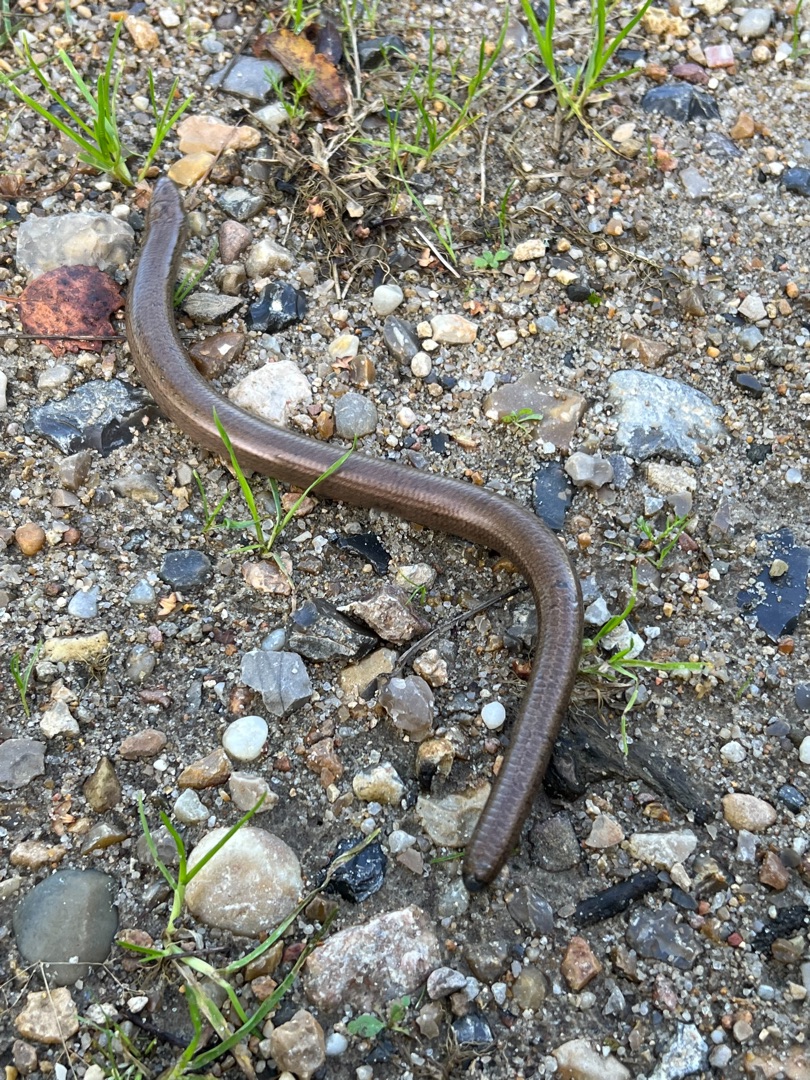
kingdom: Animalia
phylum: Chordata
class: Squamata
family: Anguidae
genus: Anguis
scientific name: Anguis fragilis
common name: Stålorm
